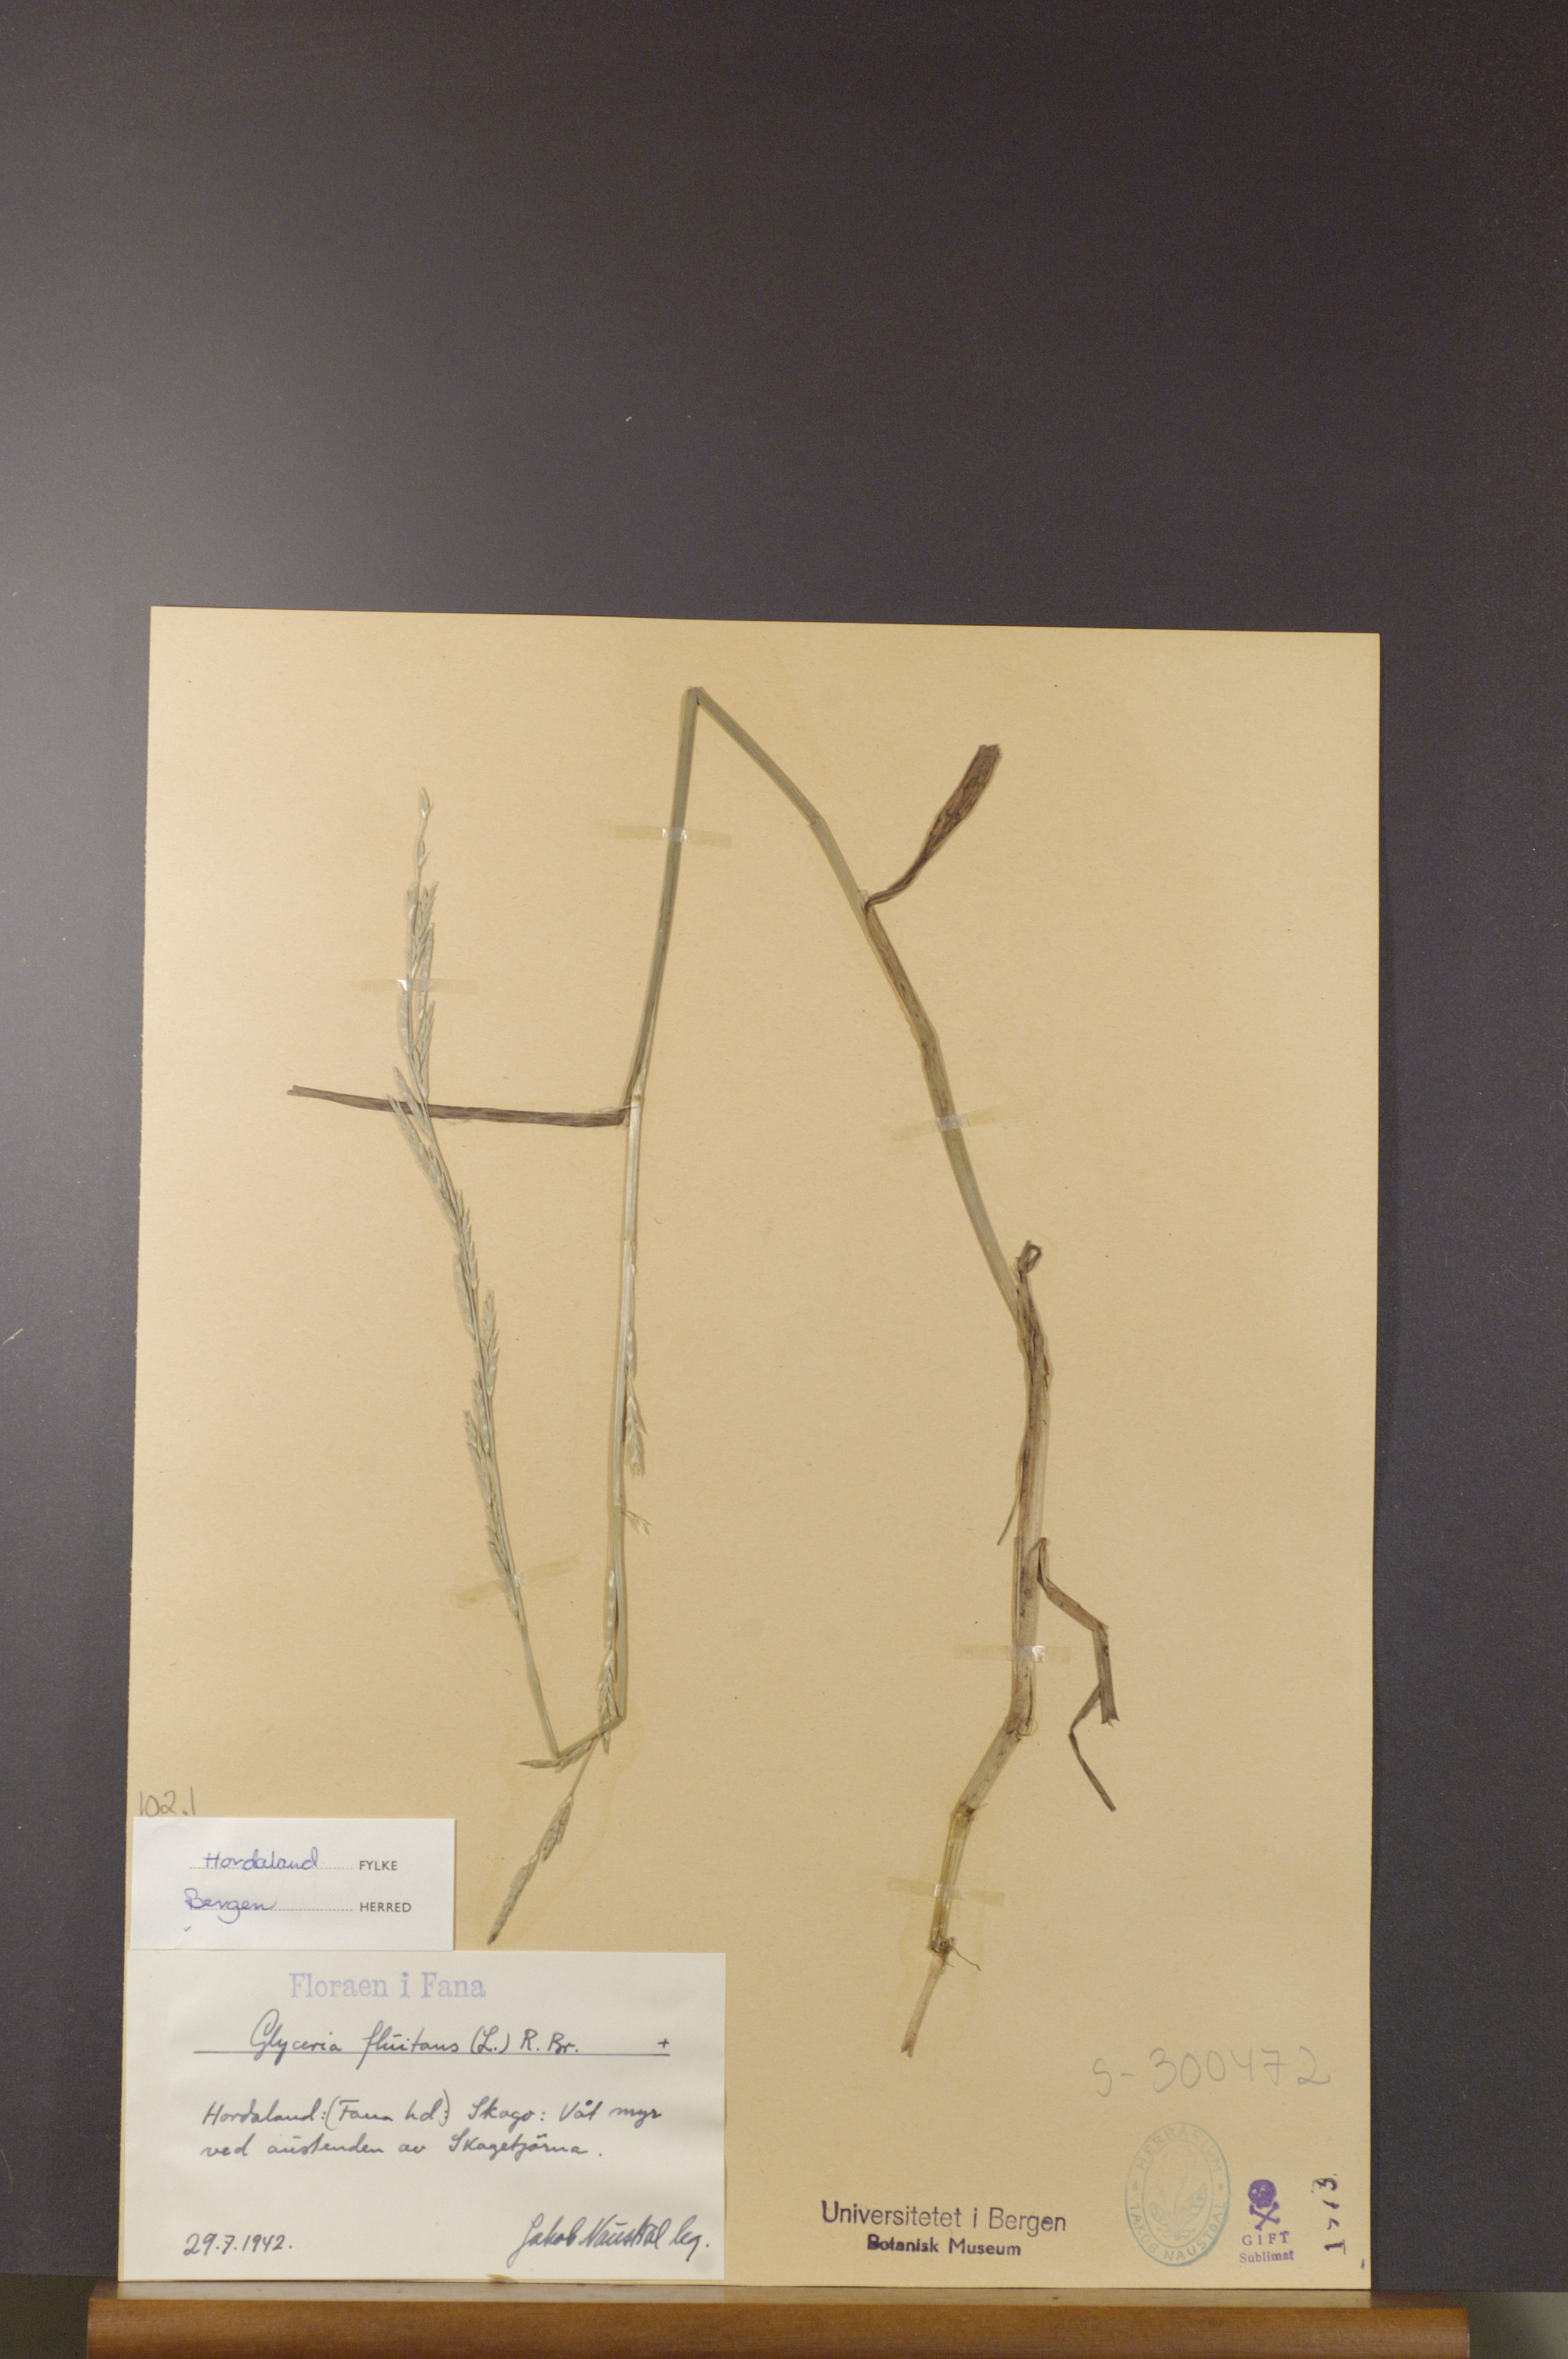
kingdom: Plantae
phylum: Tracheophyta
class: Liliopsida
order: Poales
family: Poaceae
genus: Glyceria
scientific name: Glyceria fluitans
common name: Floating sweet-grass
